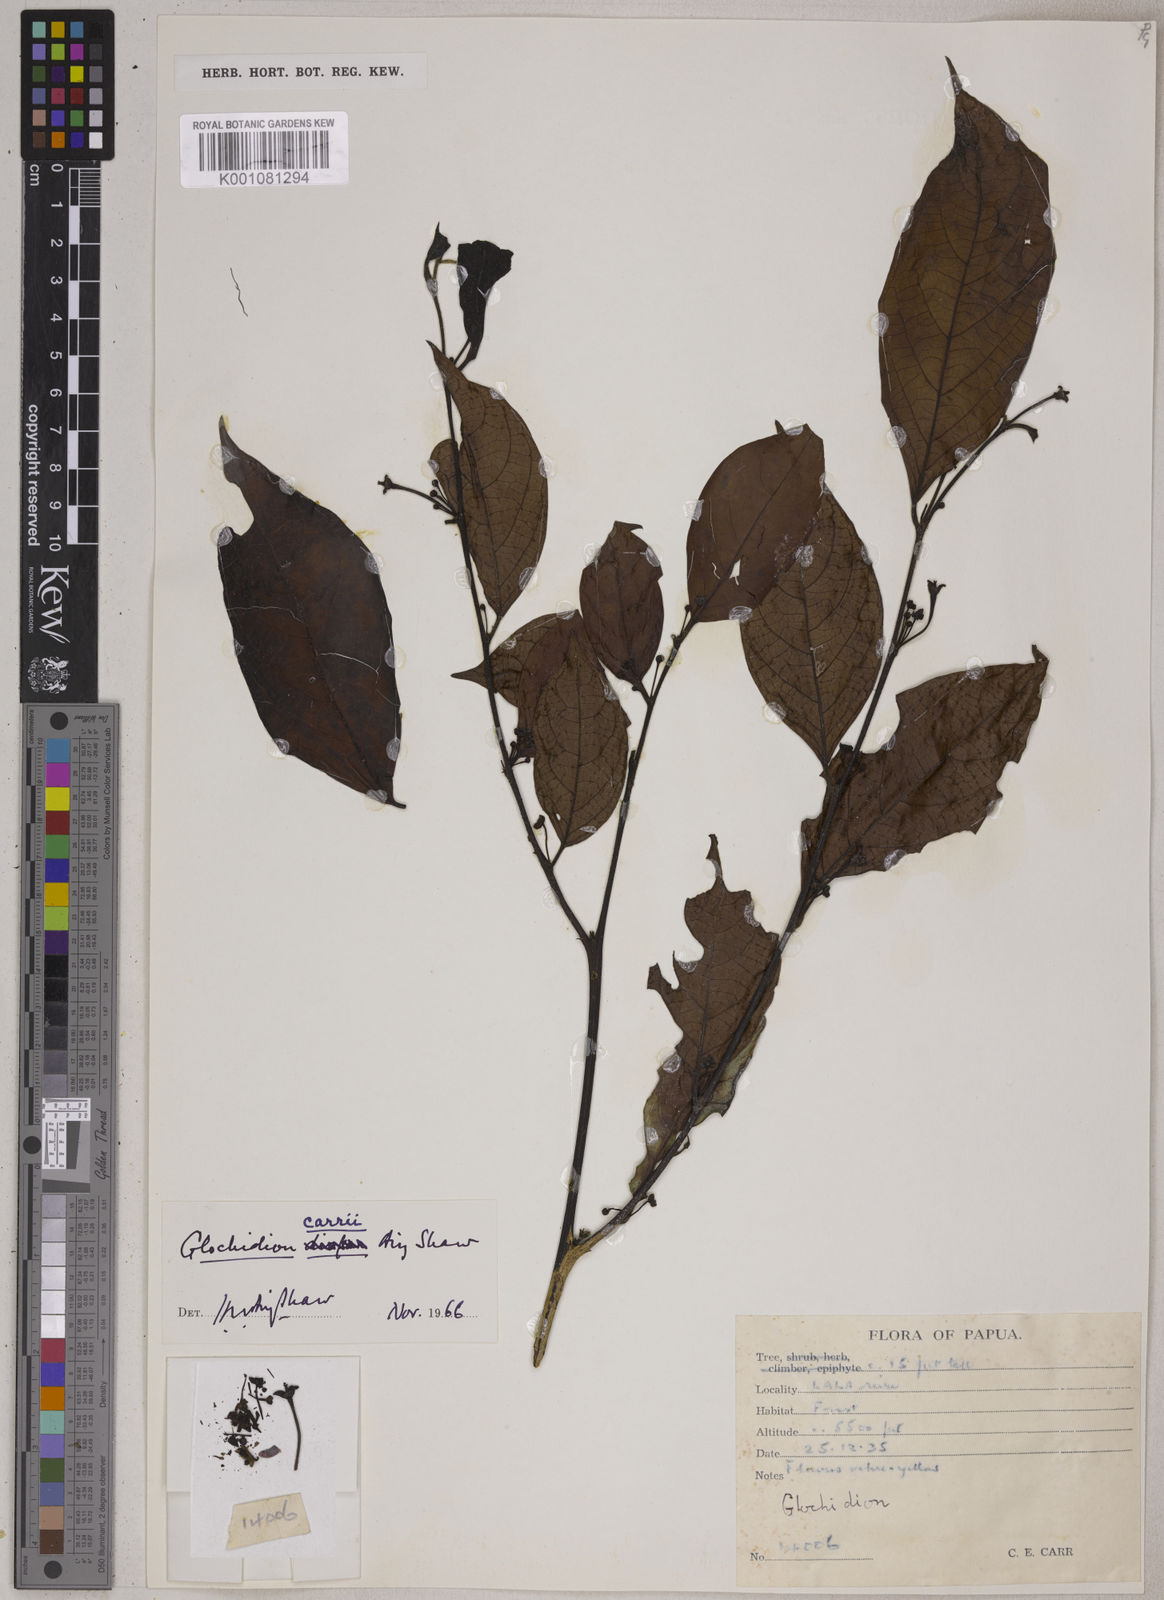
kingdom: Plantae
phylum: Tracheophyta
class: Magnoliopsida
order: Malpighiales
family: Phyllanthaceae
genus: Glochidion
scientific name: Glochidion carrii
